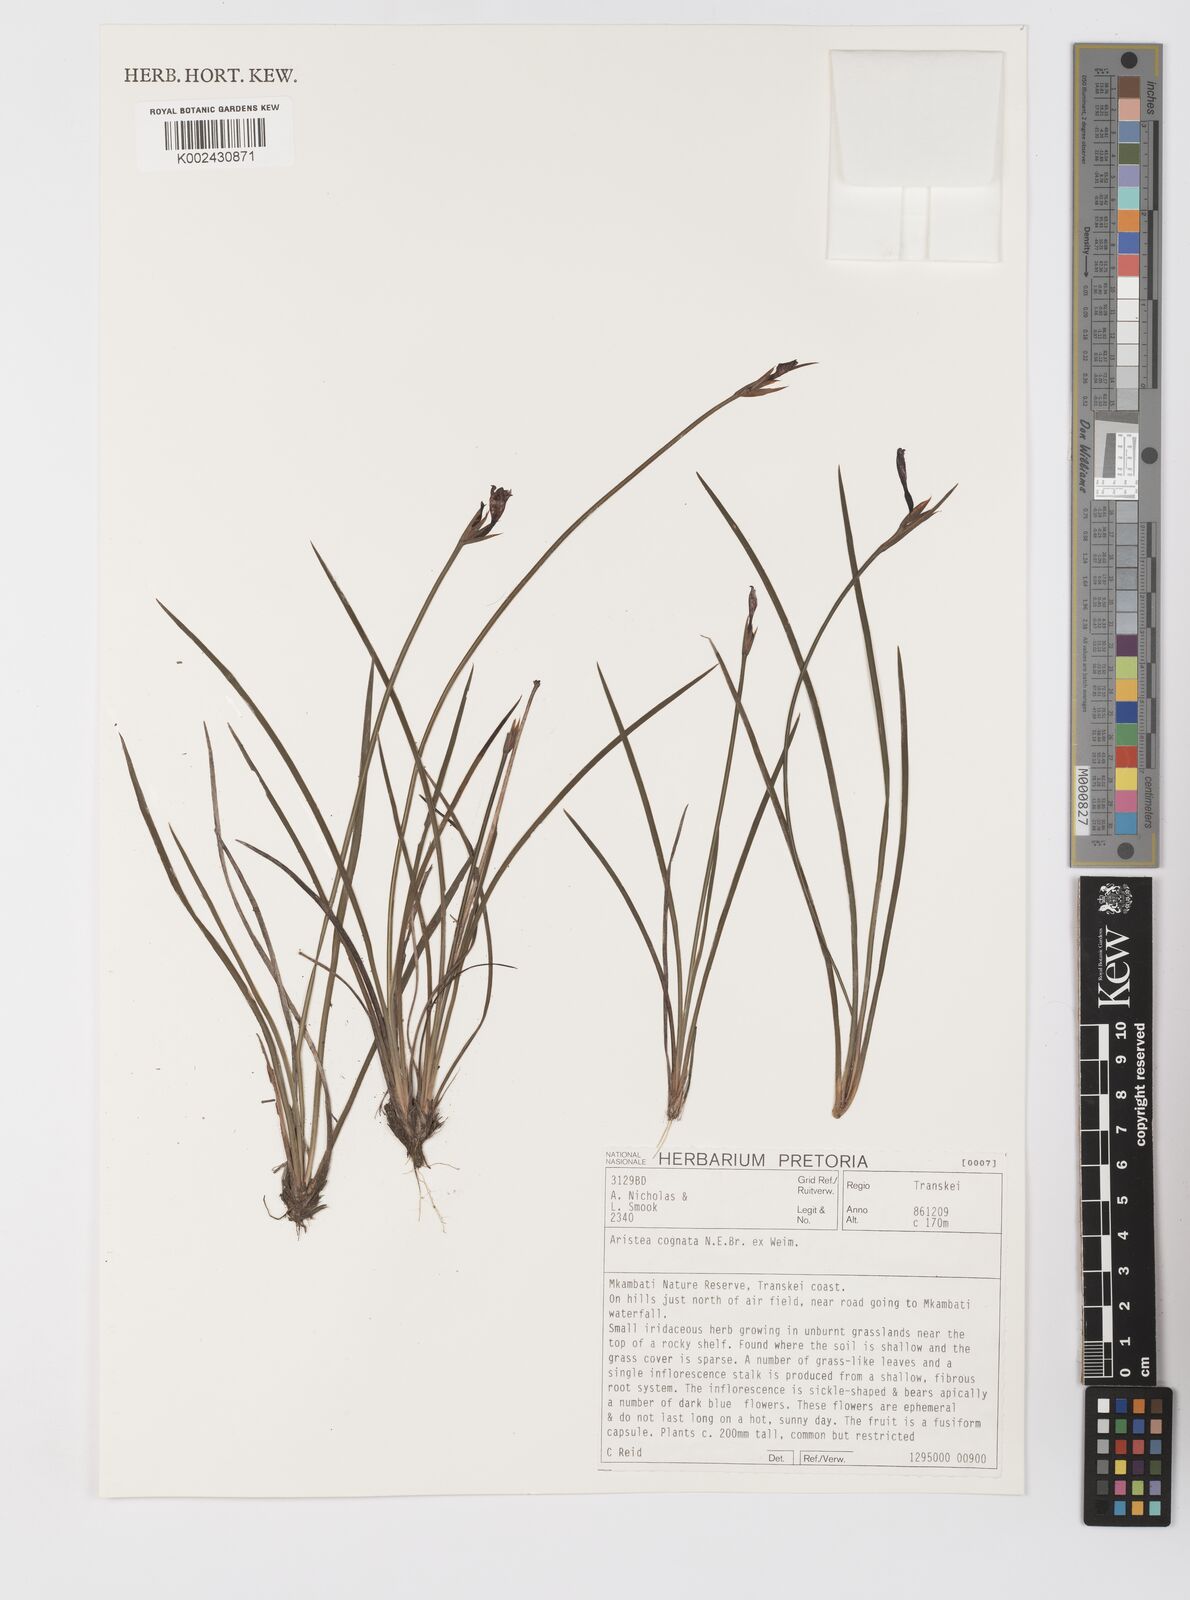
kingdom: Plantae
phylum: Tracheophyta
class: Liliopsida
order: Asparagales
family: Iridaceae
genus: Aristea
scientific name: Aristea abyssinica
